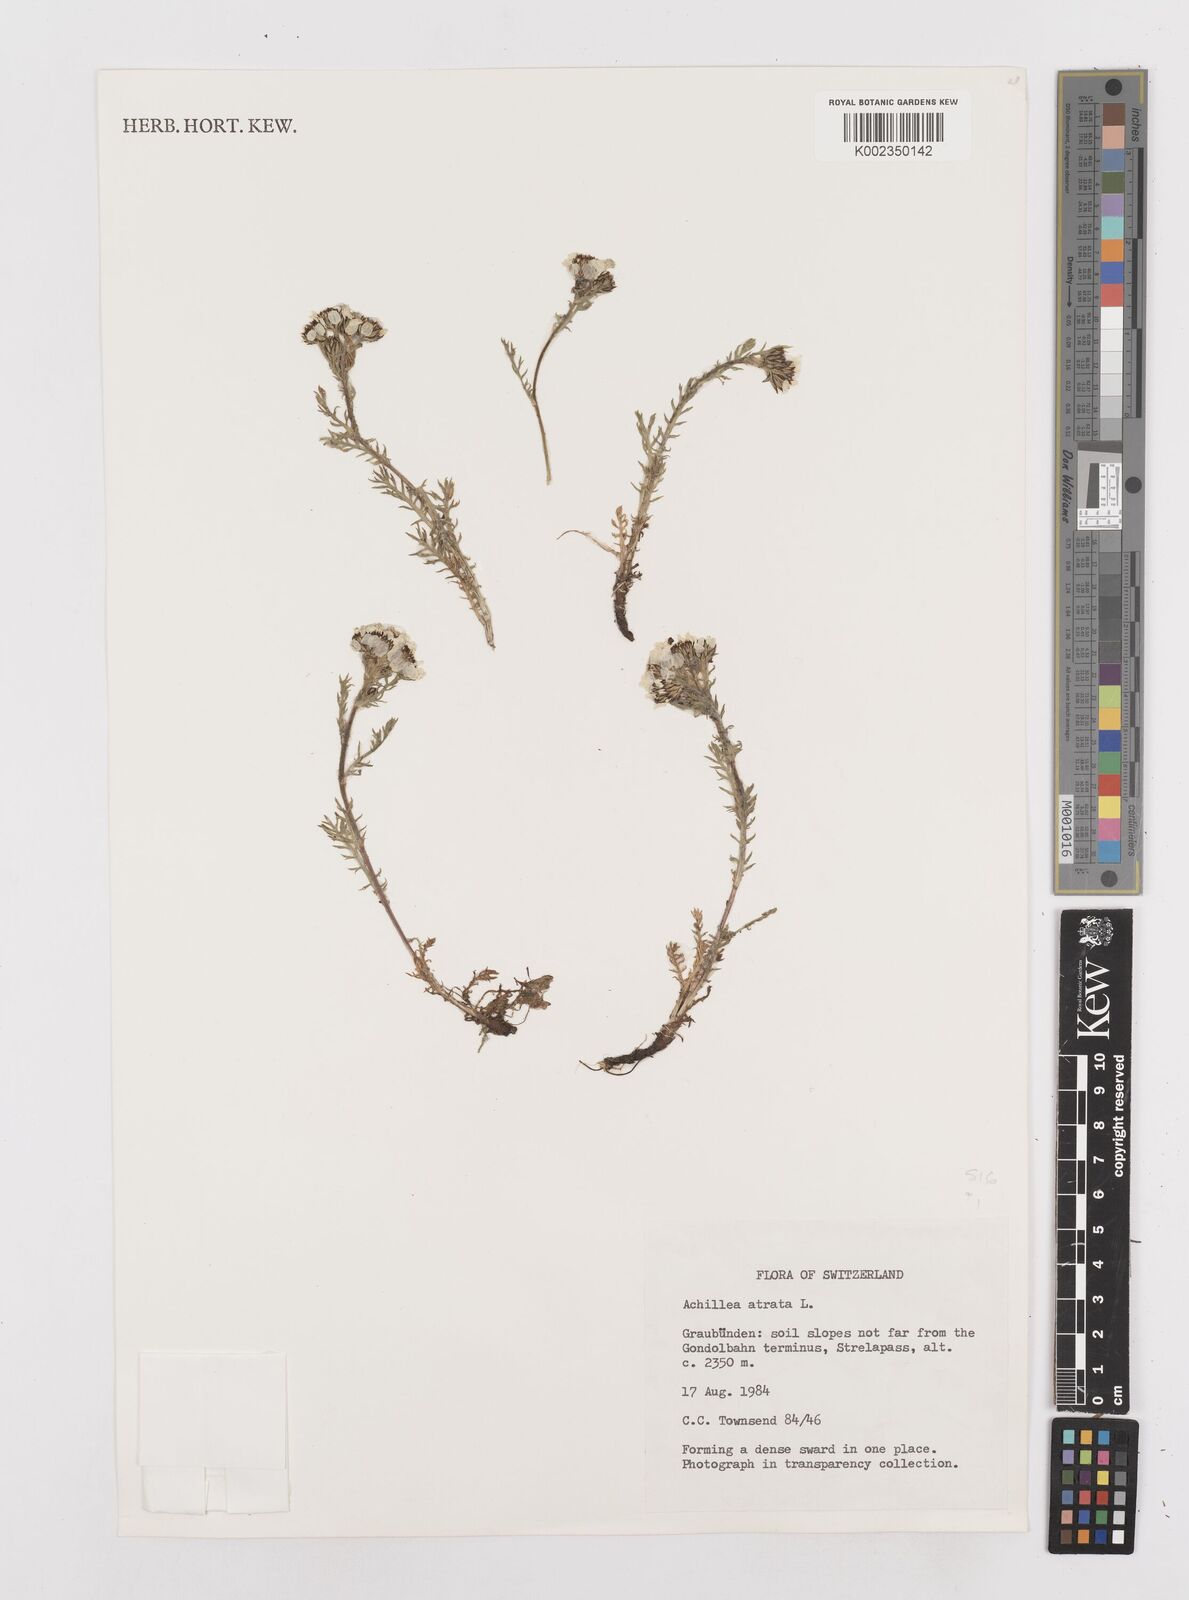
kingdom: Plantae
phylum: Tracheophyta
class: Magnoliopsida
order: Asterales
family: Asteraceae
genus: Achillea
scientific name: Achillea atrata
